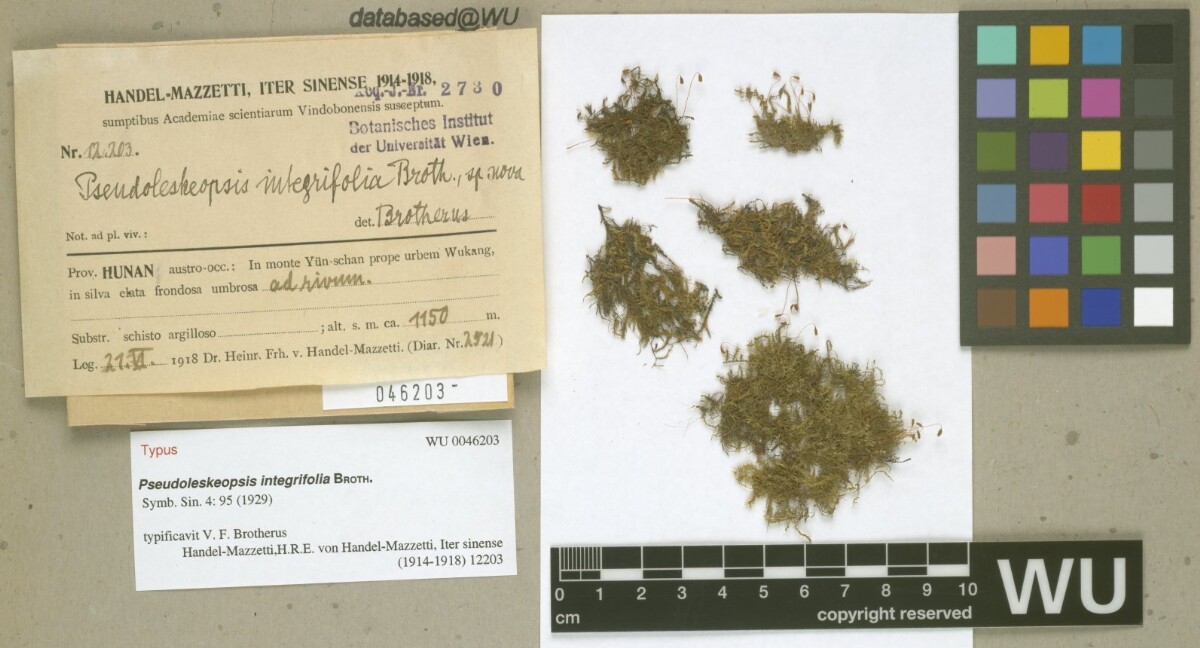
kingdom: Plantae
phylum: Bryophyta
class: Bryopsida
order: Hypnales
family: Leskeaceae
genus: Pseudoleskeopsis
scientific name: Pseudoleskeopsis zippelii
